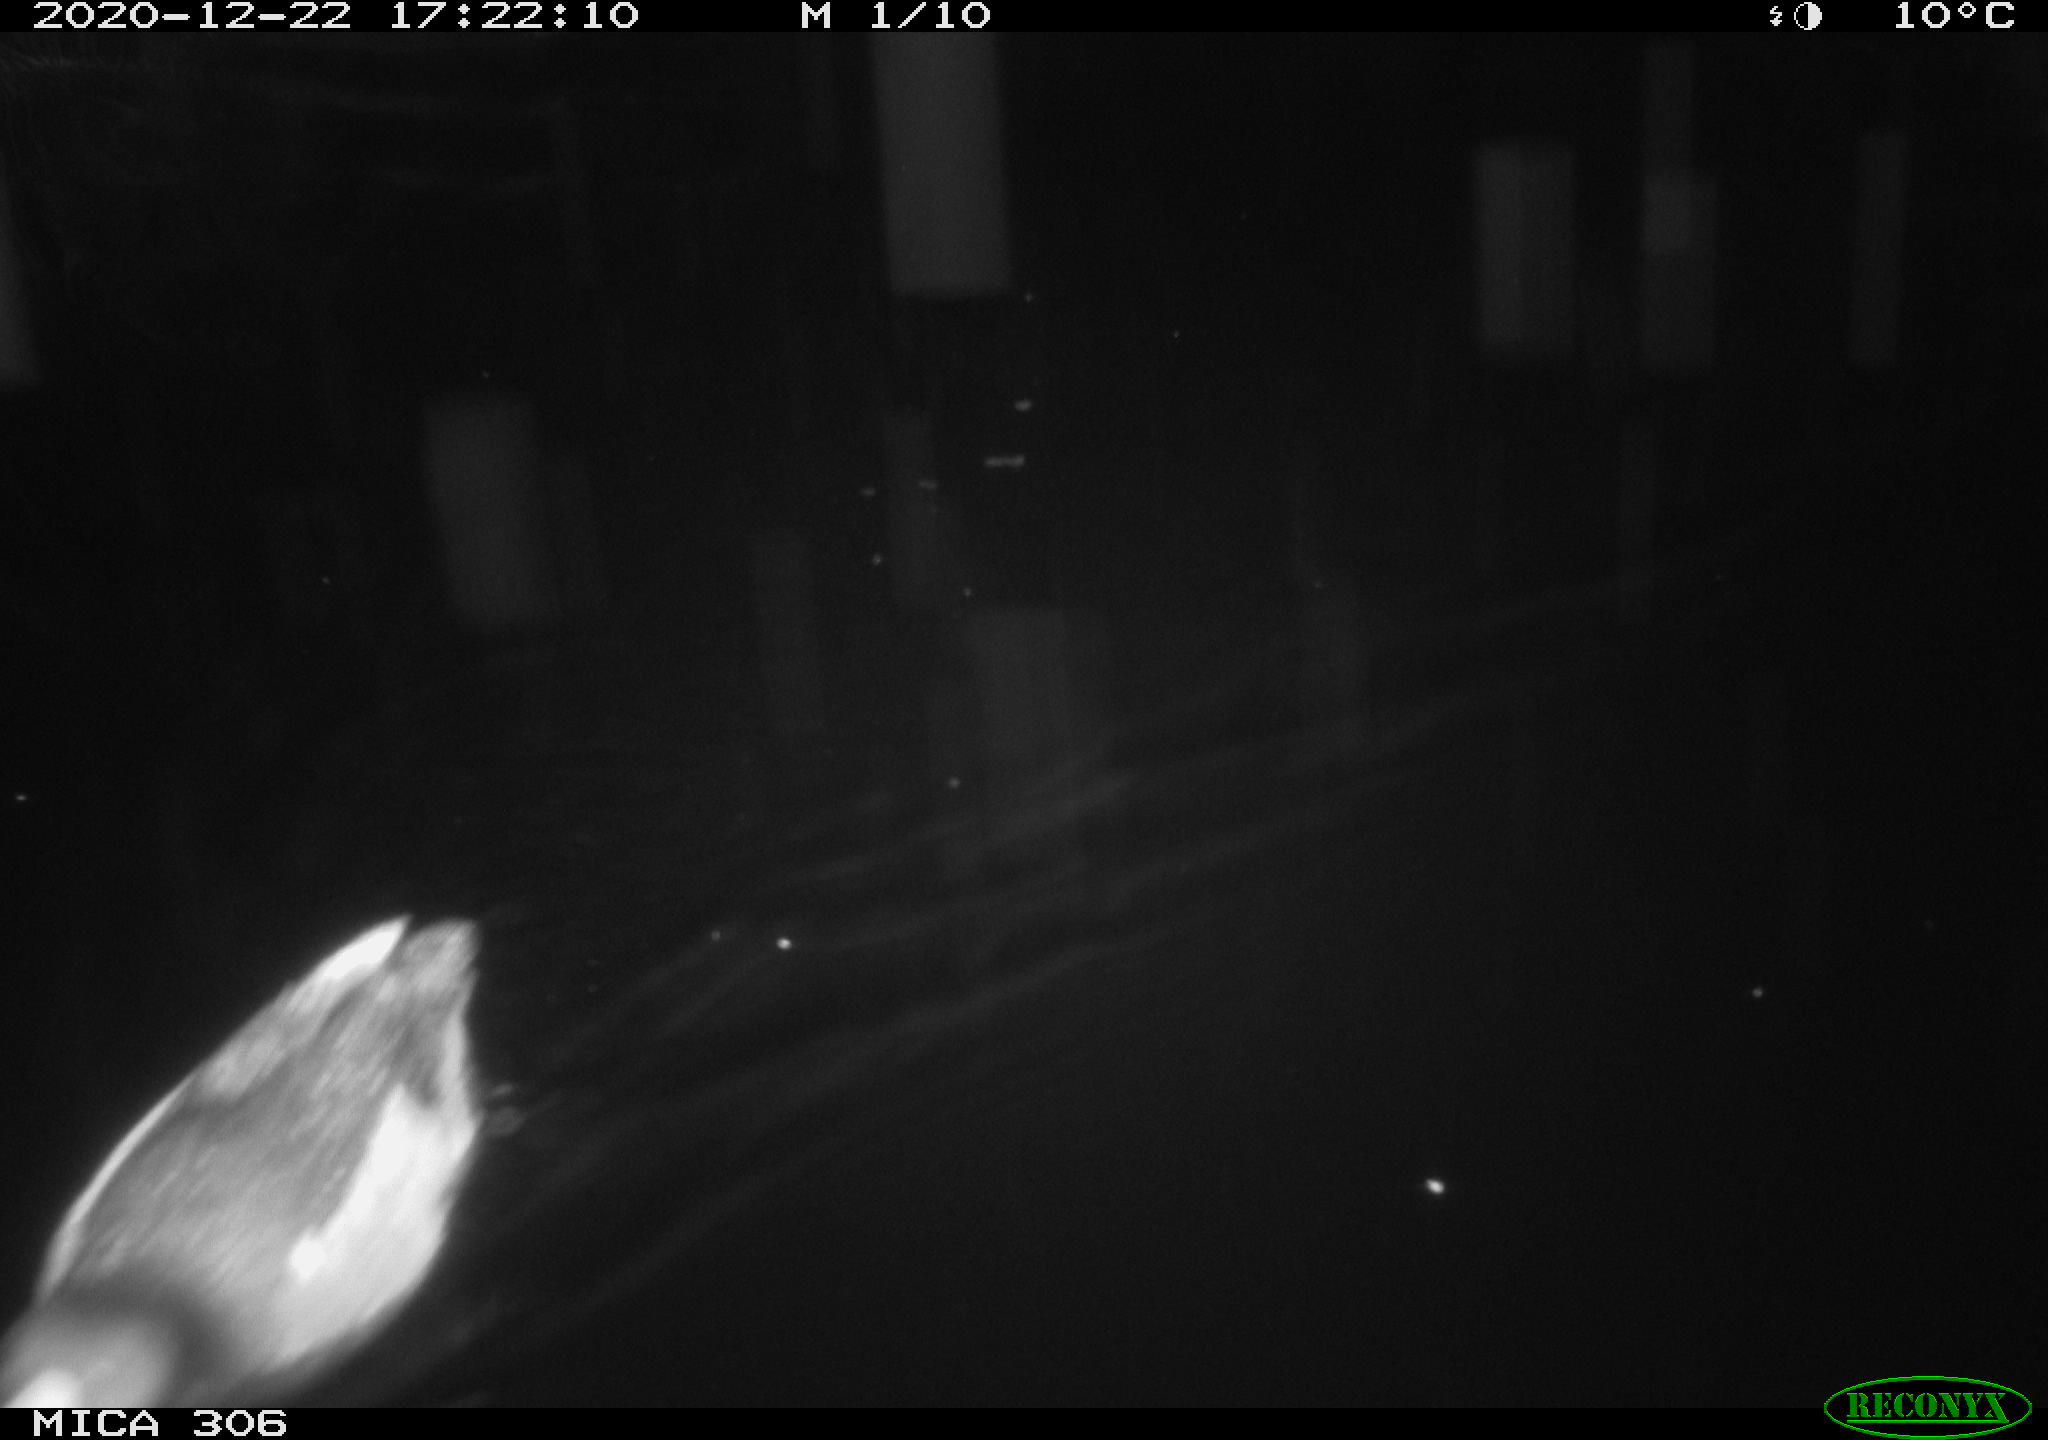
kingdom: Animalia
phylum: Chordata
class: Aves
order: Gruiformes
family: Rallidae
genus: Gallinula
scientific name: Gallinula chloropus
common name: Common moorhen
